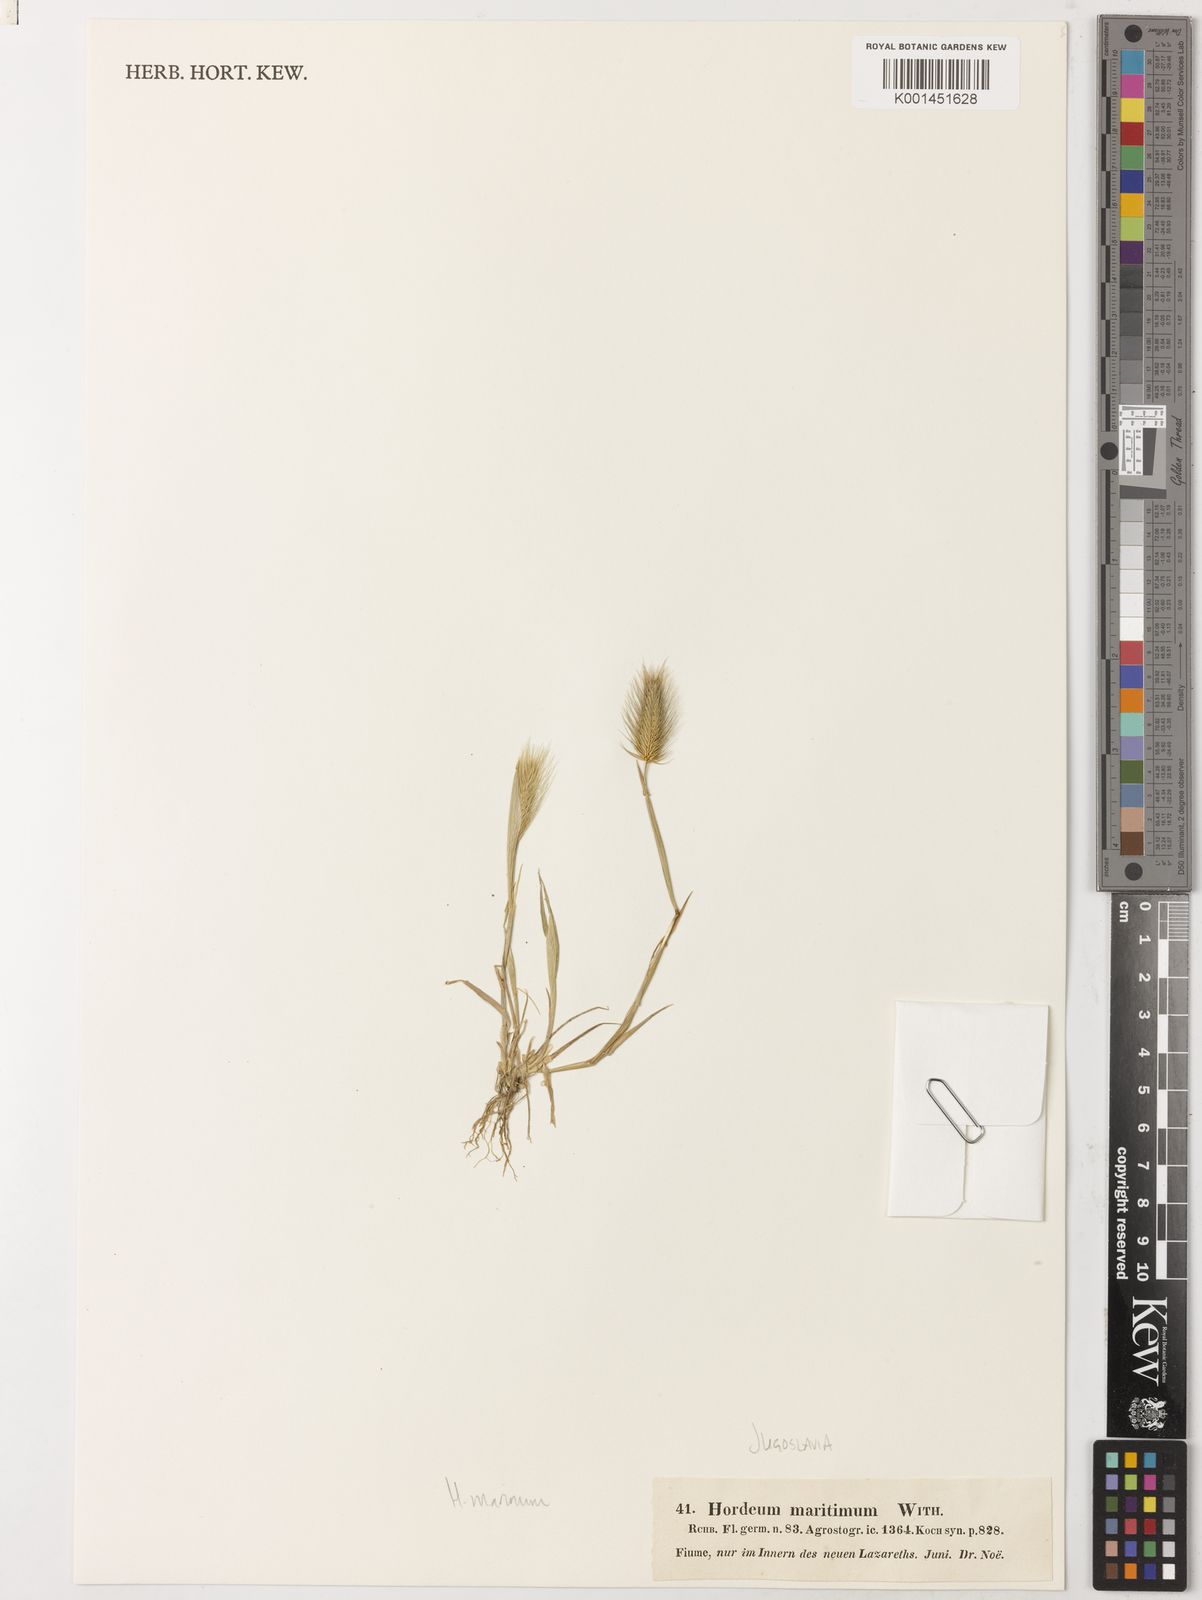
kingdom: Plantae
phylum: Tracheophyta
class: Liliopsida
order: Poales
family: Poaceae
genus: Hordeum
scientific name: Hordeum marinum
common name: Sea barley
